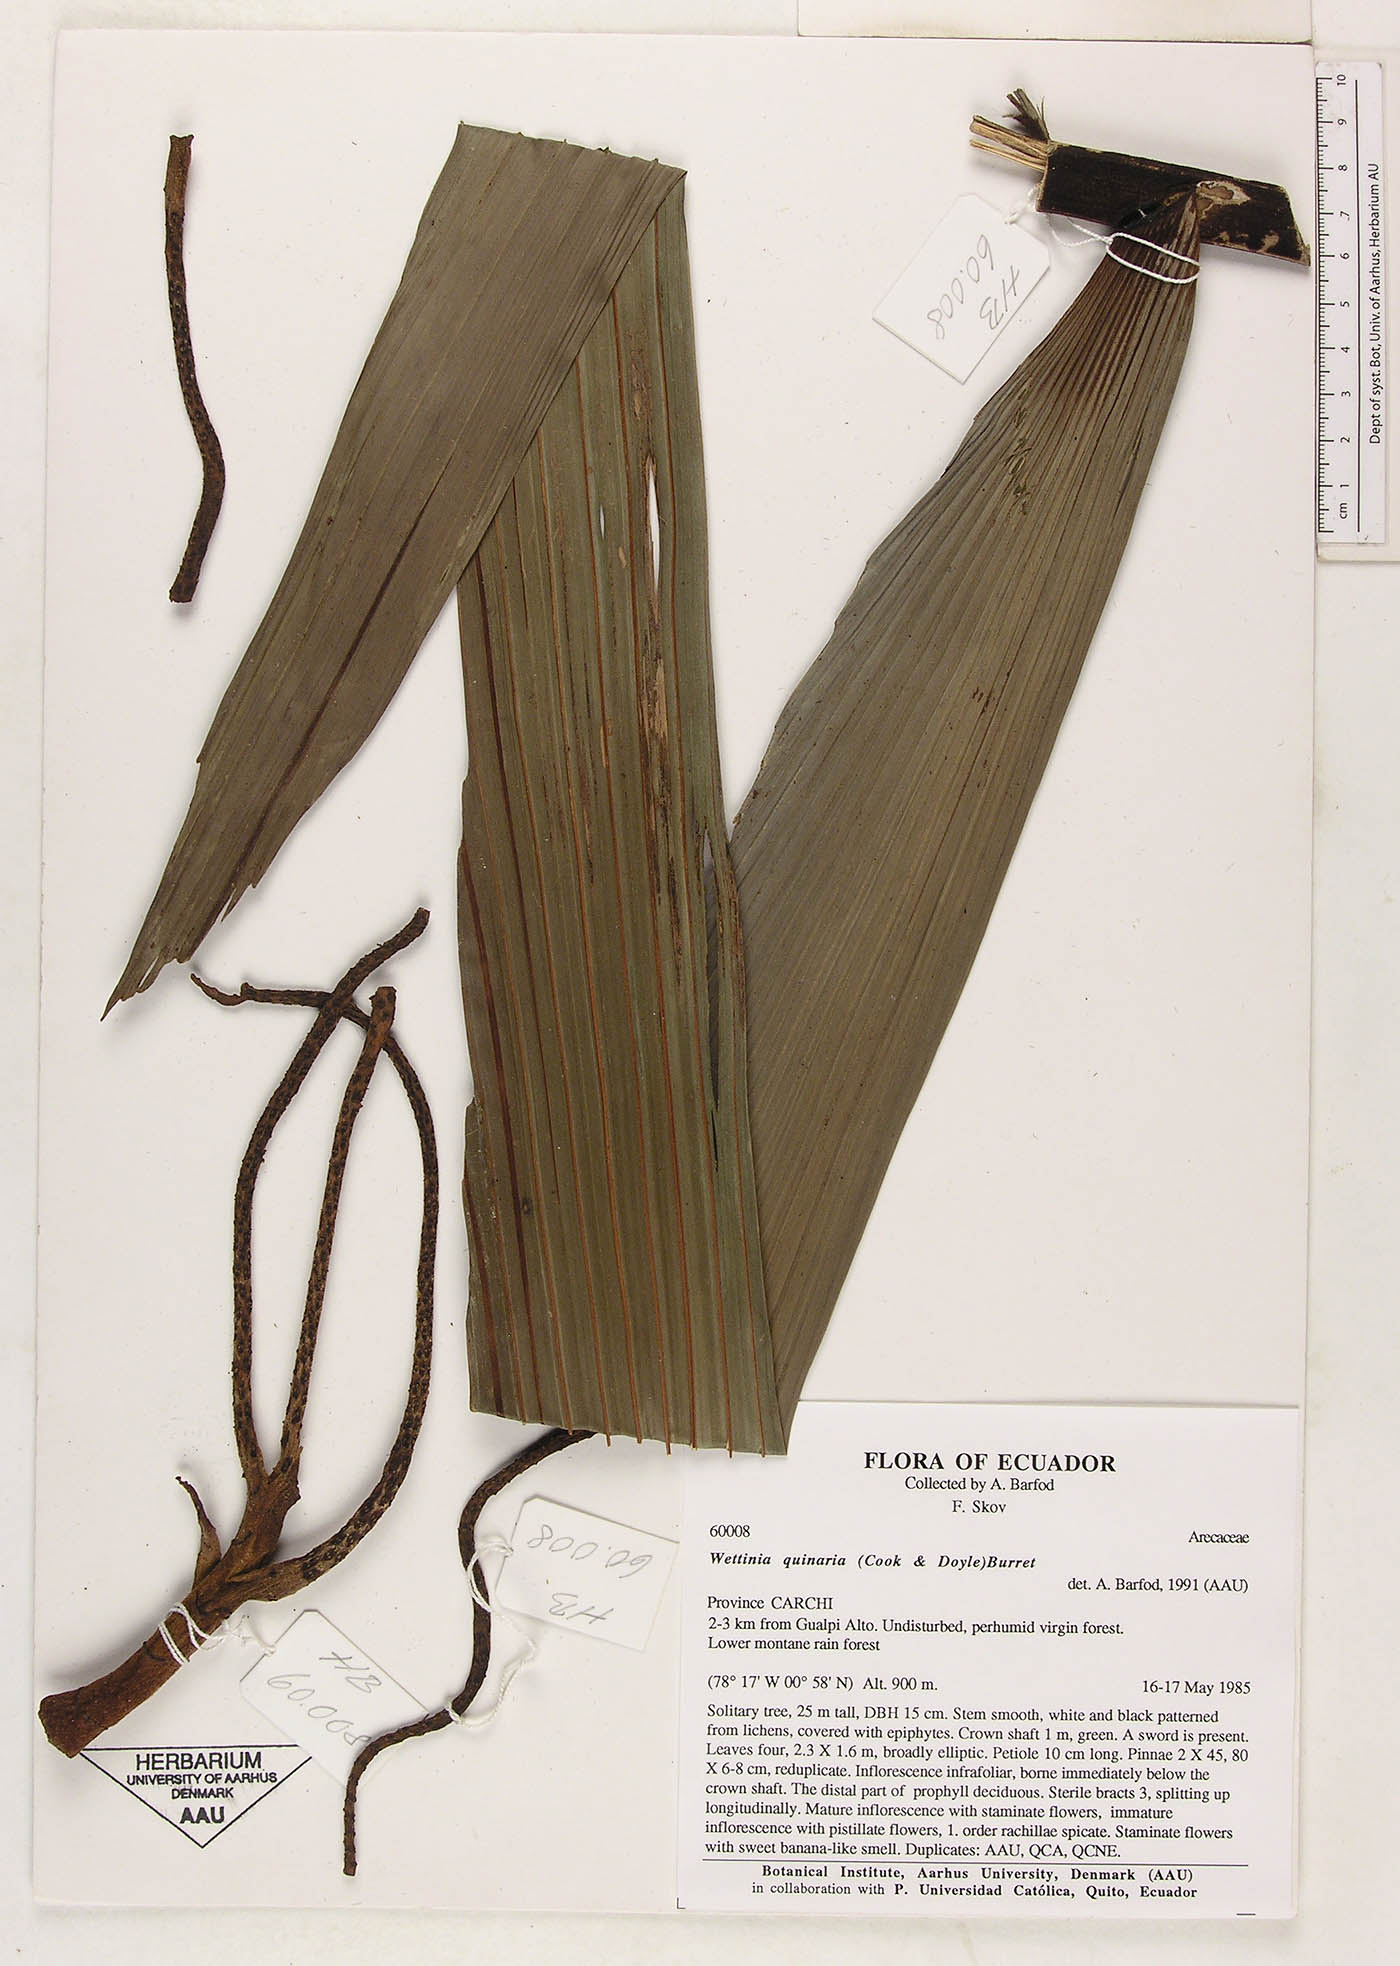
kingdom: Plantae
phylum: Tracheophyta
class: Liliopsida
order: Arecales
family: Arecaceae
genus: Wettinia
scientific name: Wettinia quinaria
